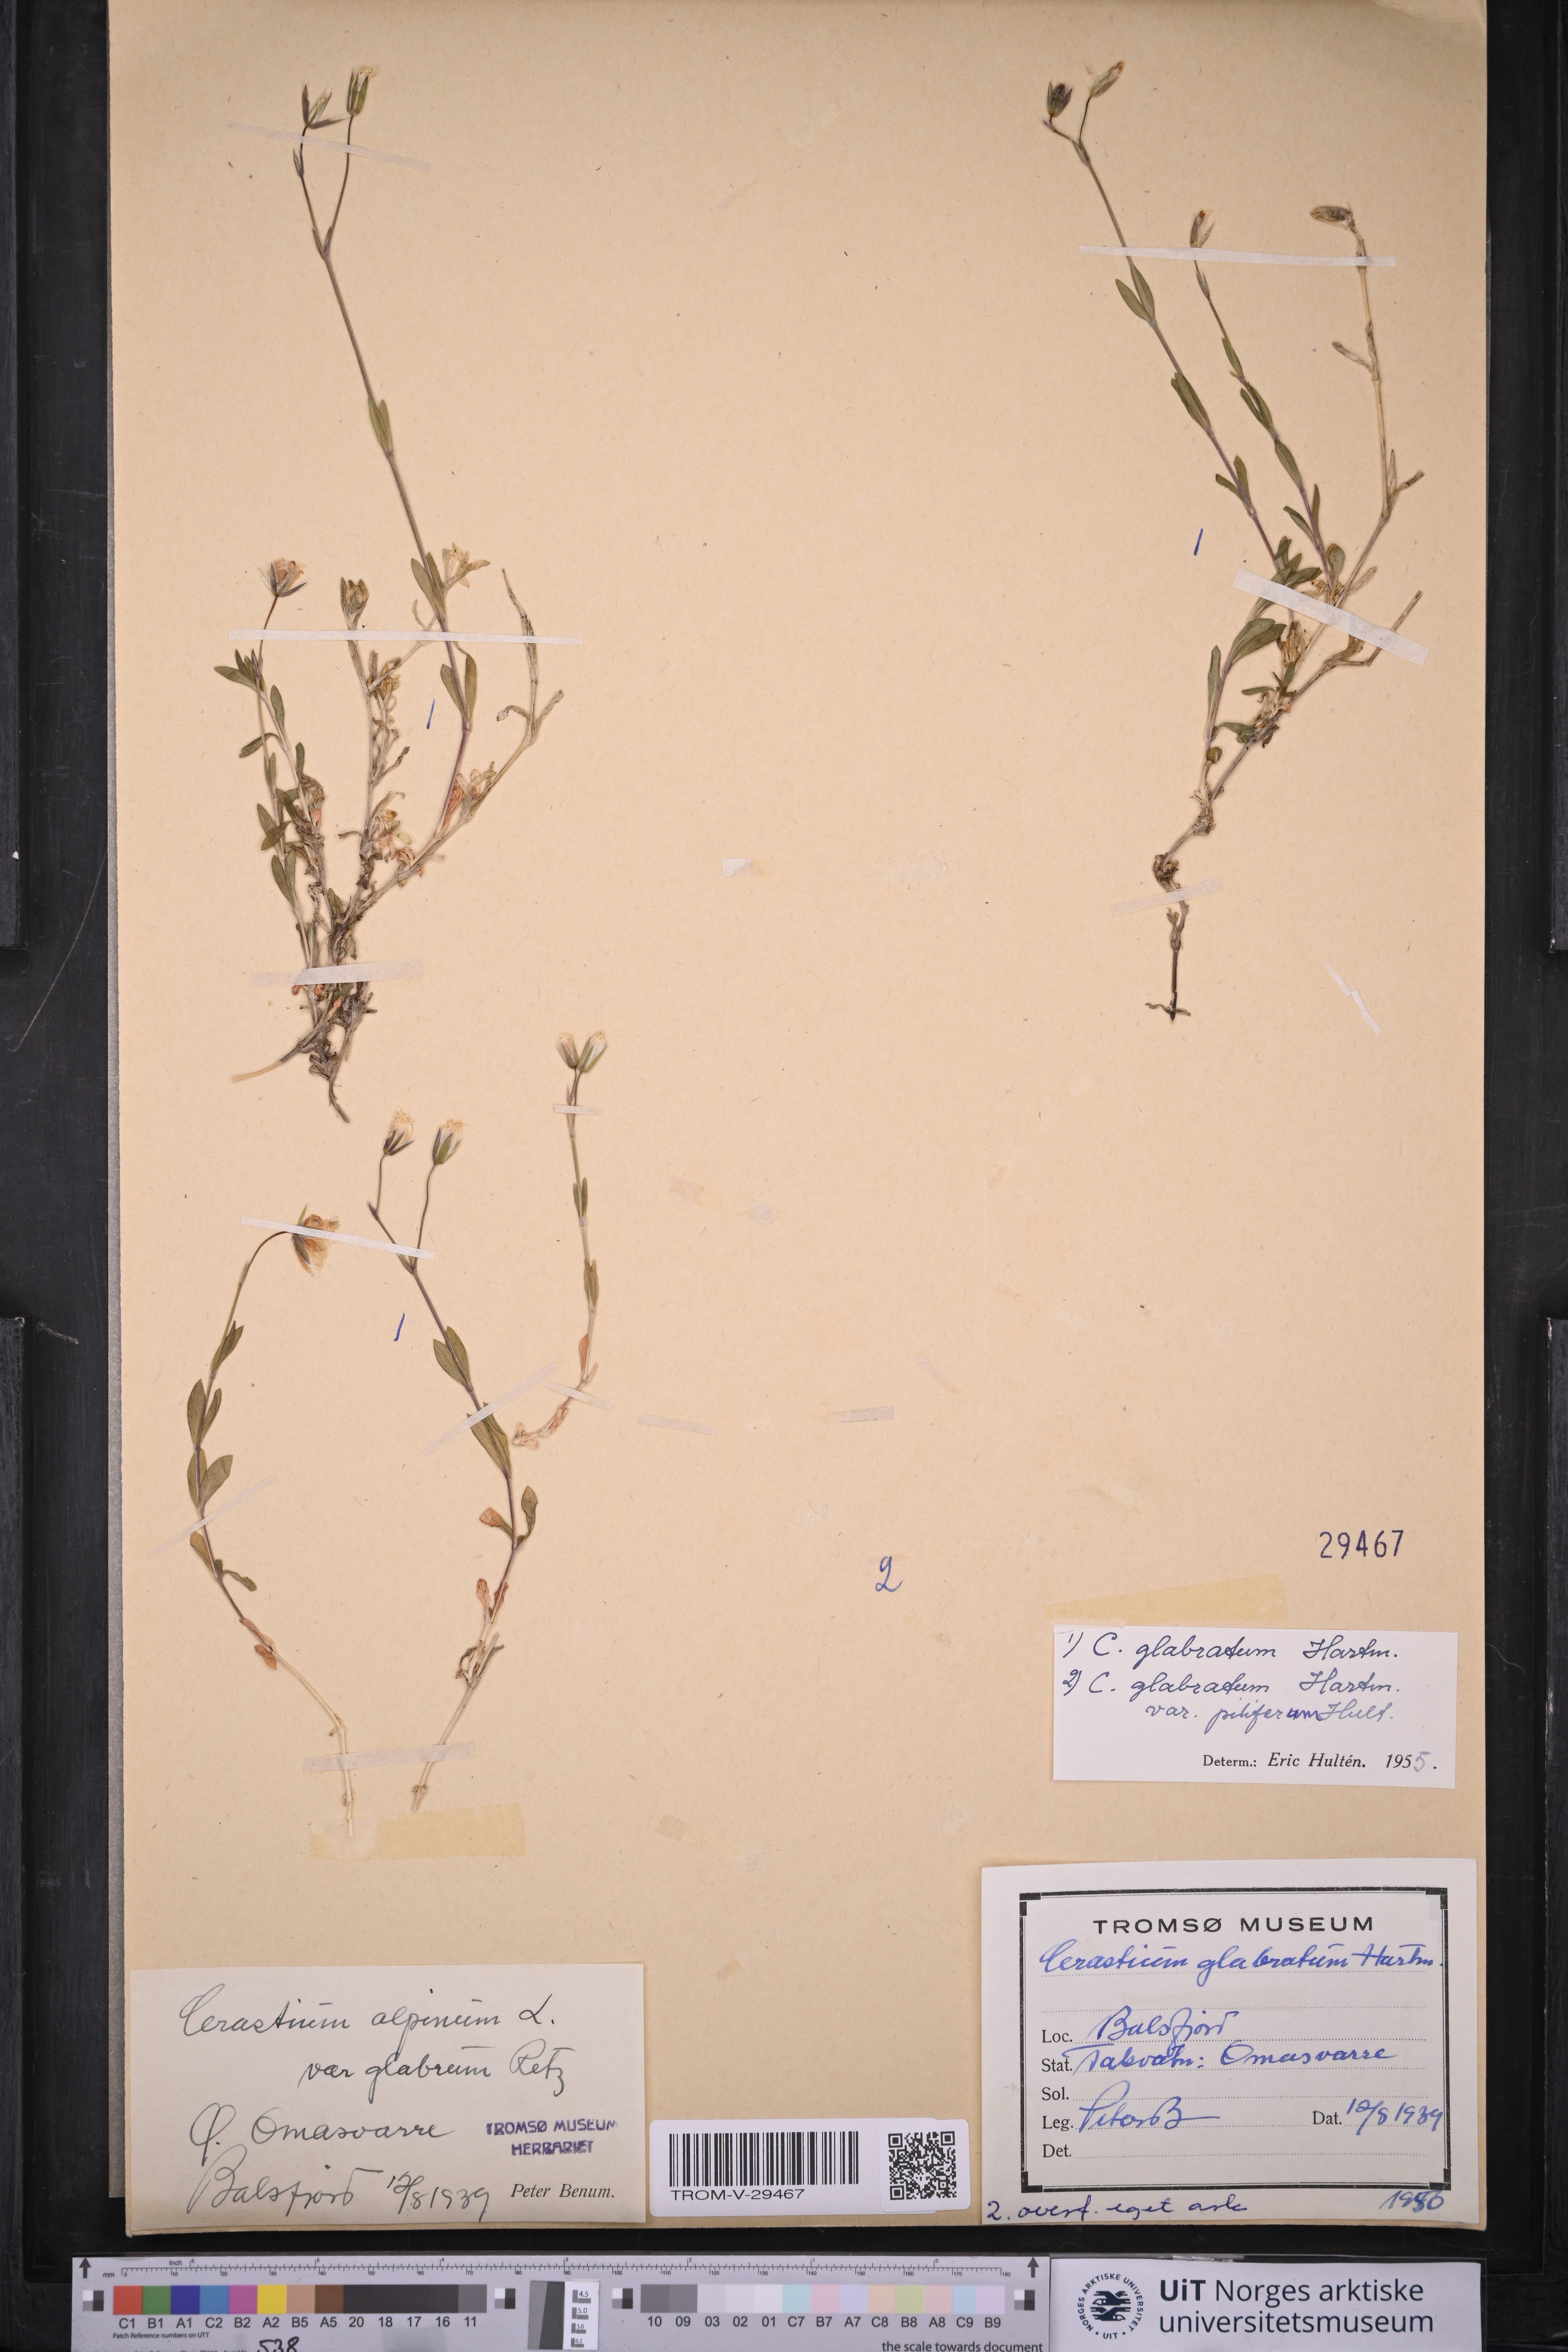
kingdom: Plantae
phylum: Tracheophyta
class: Magnoliopsida
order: Caryophyllales
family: Caryophyllaceae
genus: Cerastium
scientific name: Cerastium alpinum
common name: Alpine mouse-ear
